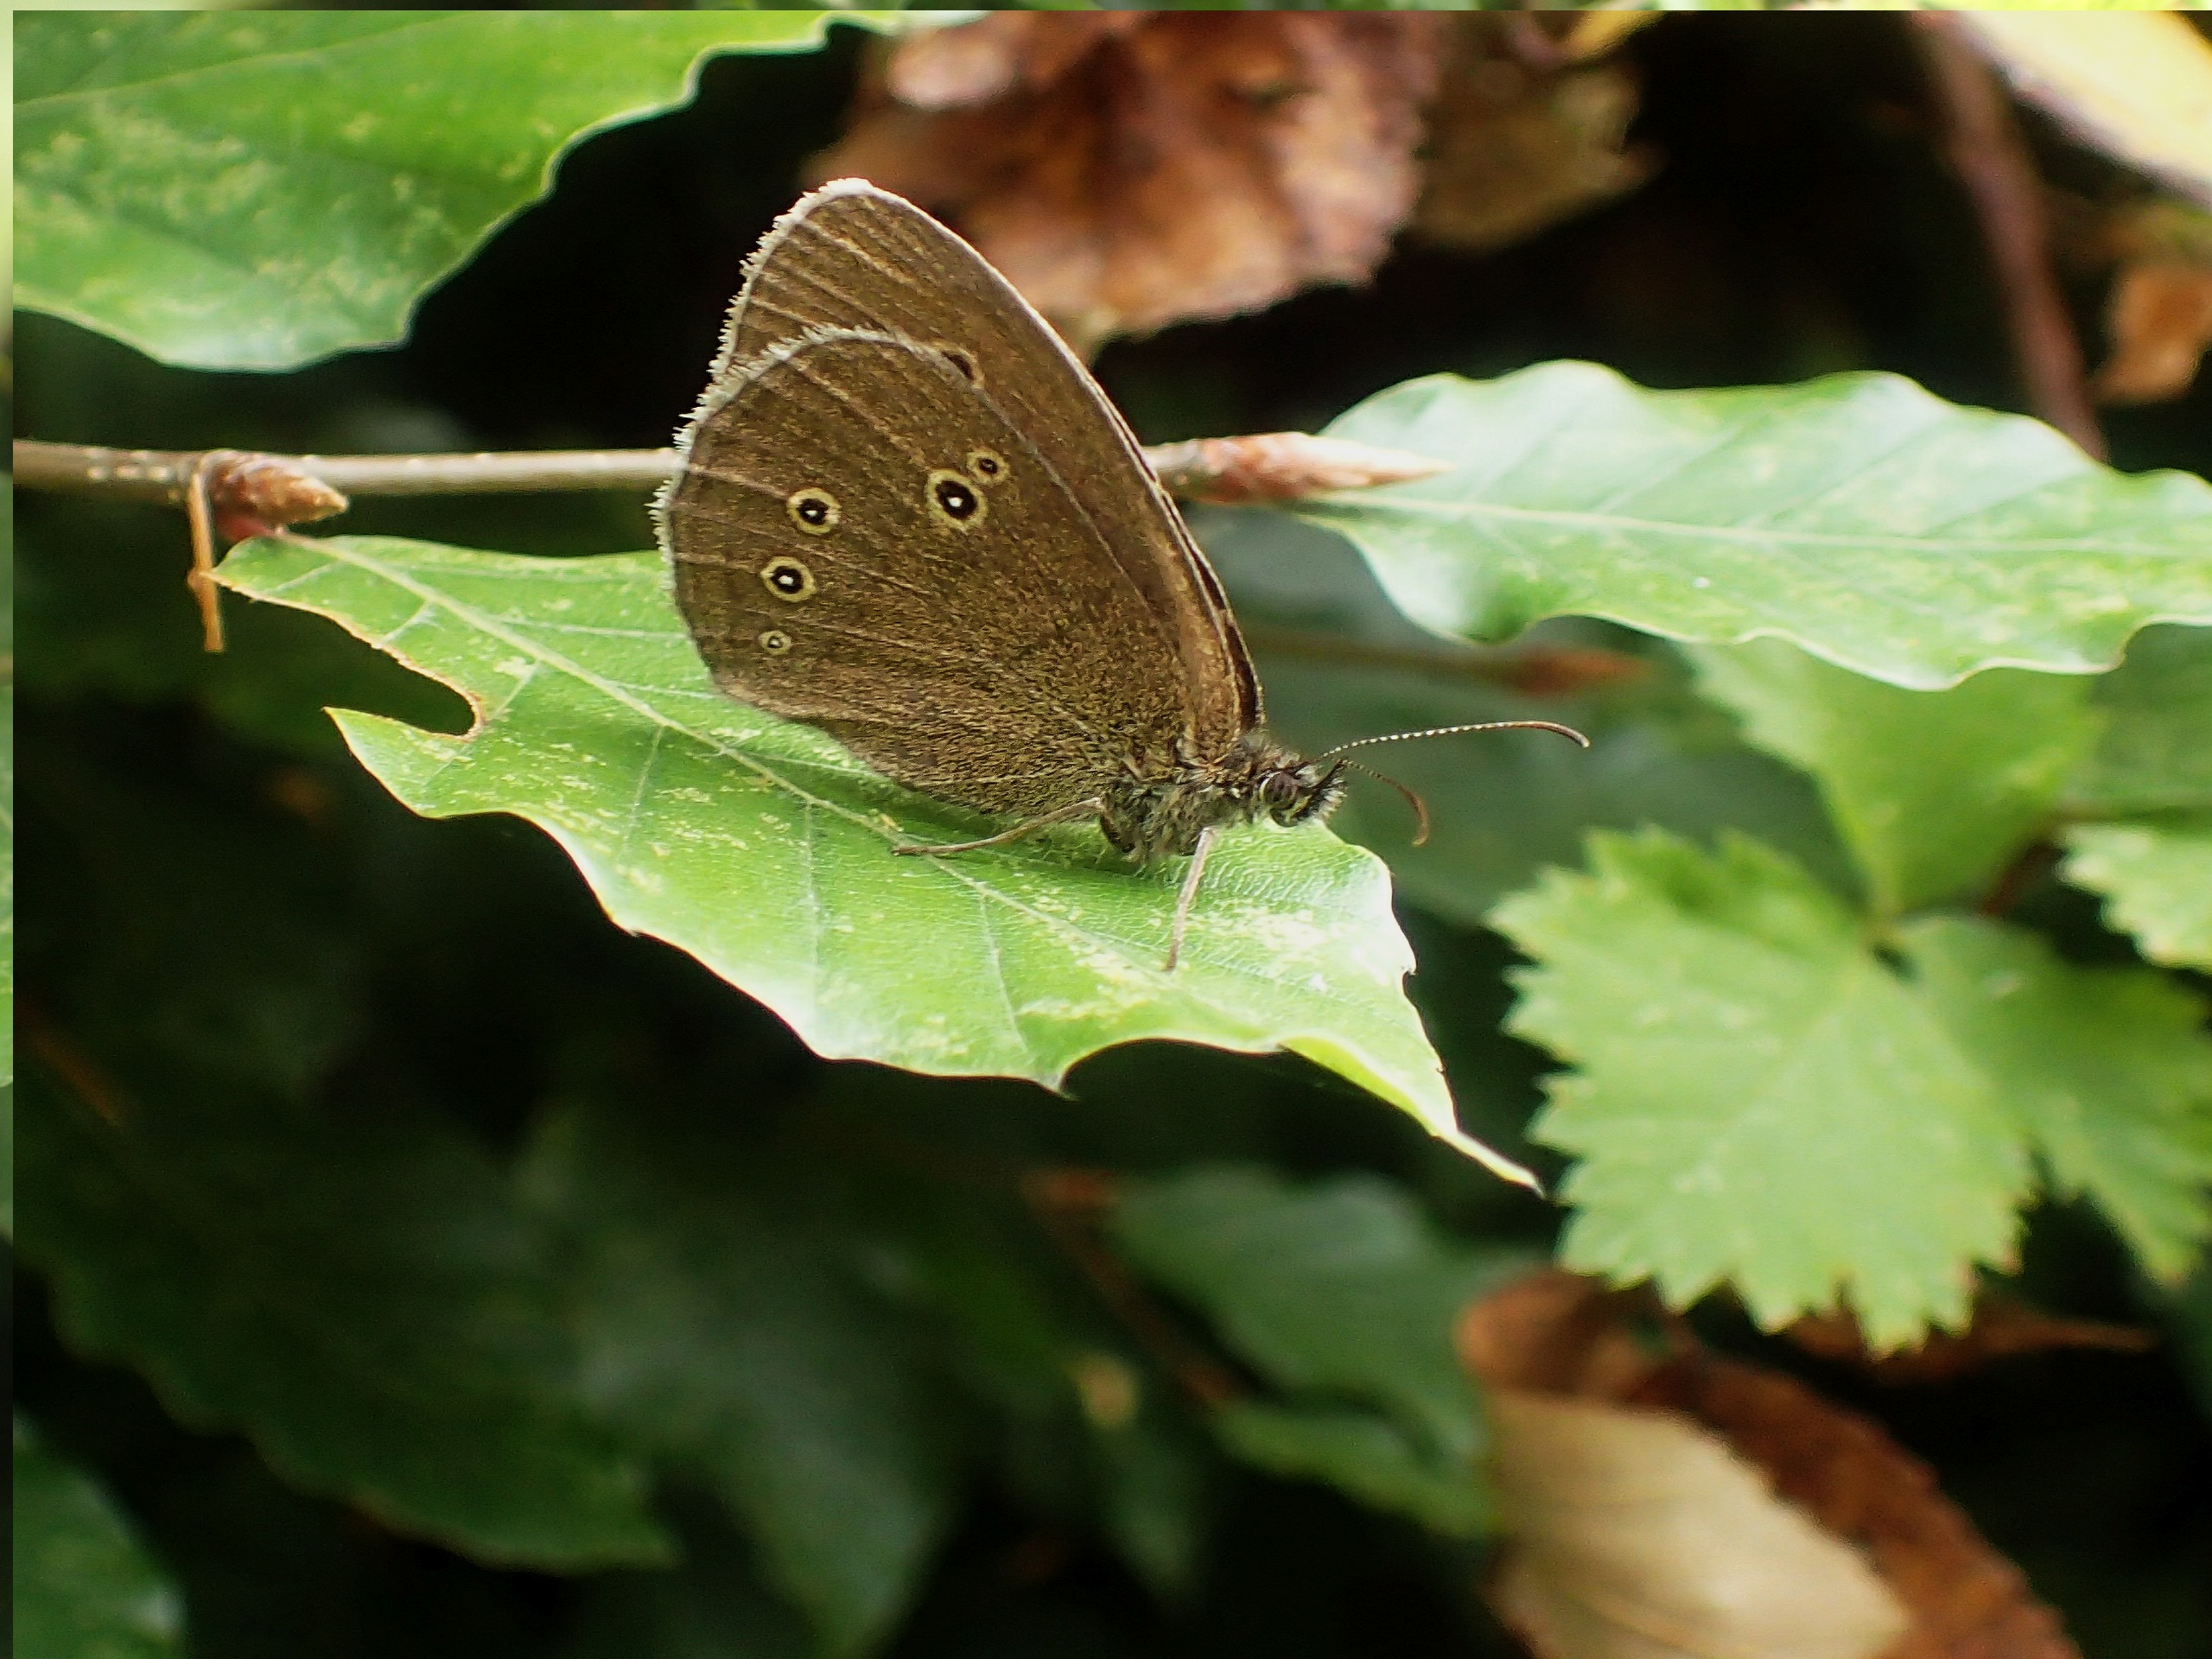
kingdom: Animalia
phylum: Arthropoda
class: Insecta
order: Lepidoptera
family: Nymphalidae
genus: Aphantopus
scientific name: Aphantopus hyperantus
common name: Engrandøje
